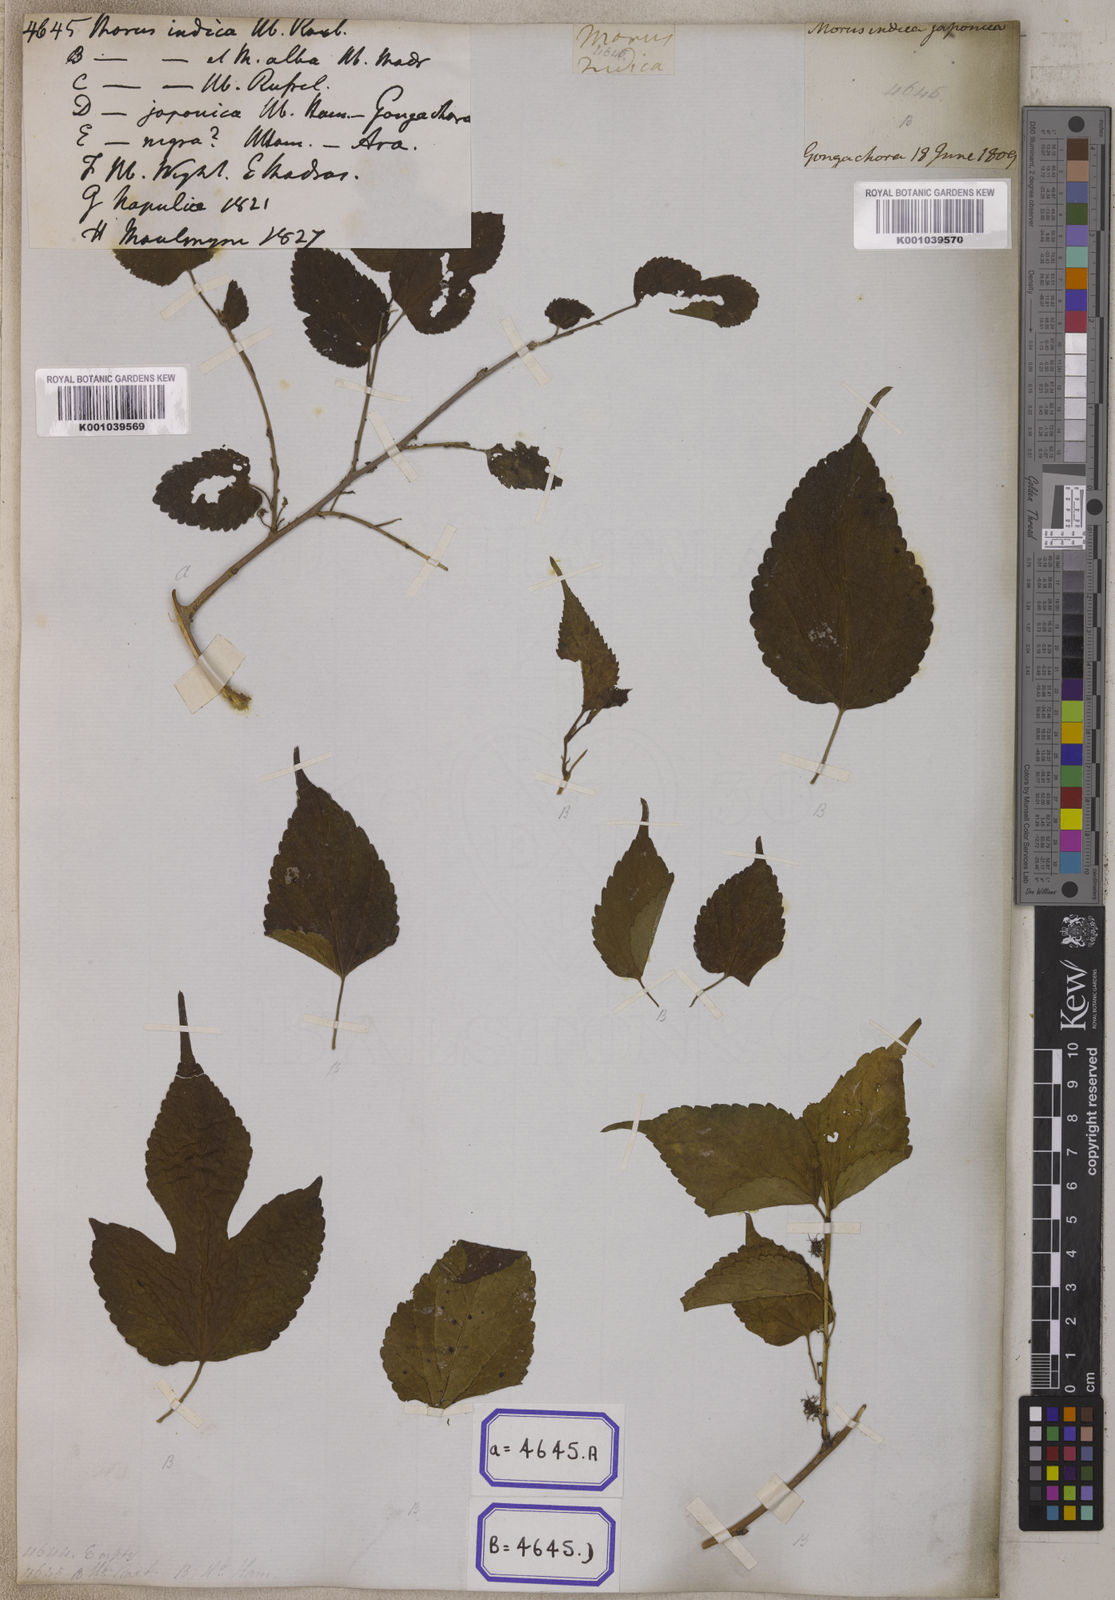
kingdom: Plantae
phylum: Tracheophyta
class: Magnoliopsida
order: Rosales
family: Moraceae
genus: Morus
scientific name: Morus indica
